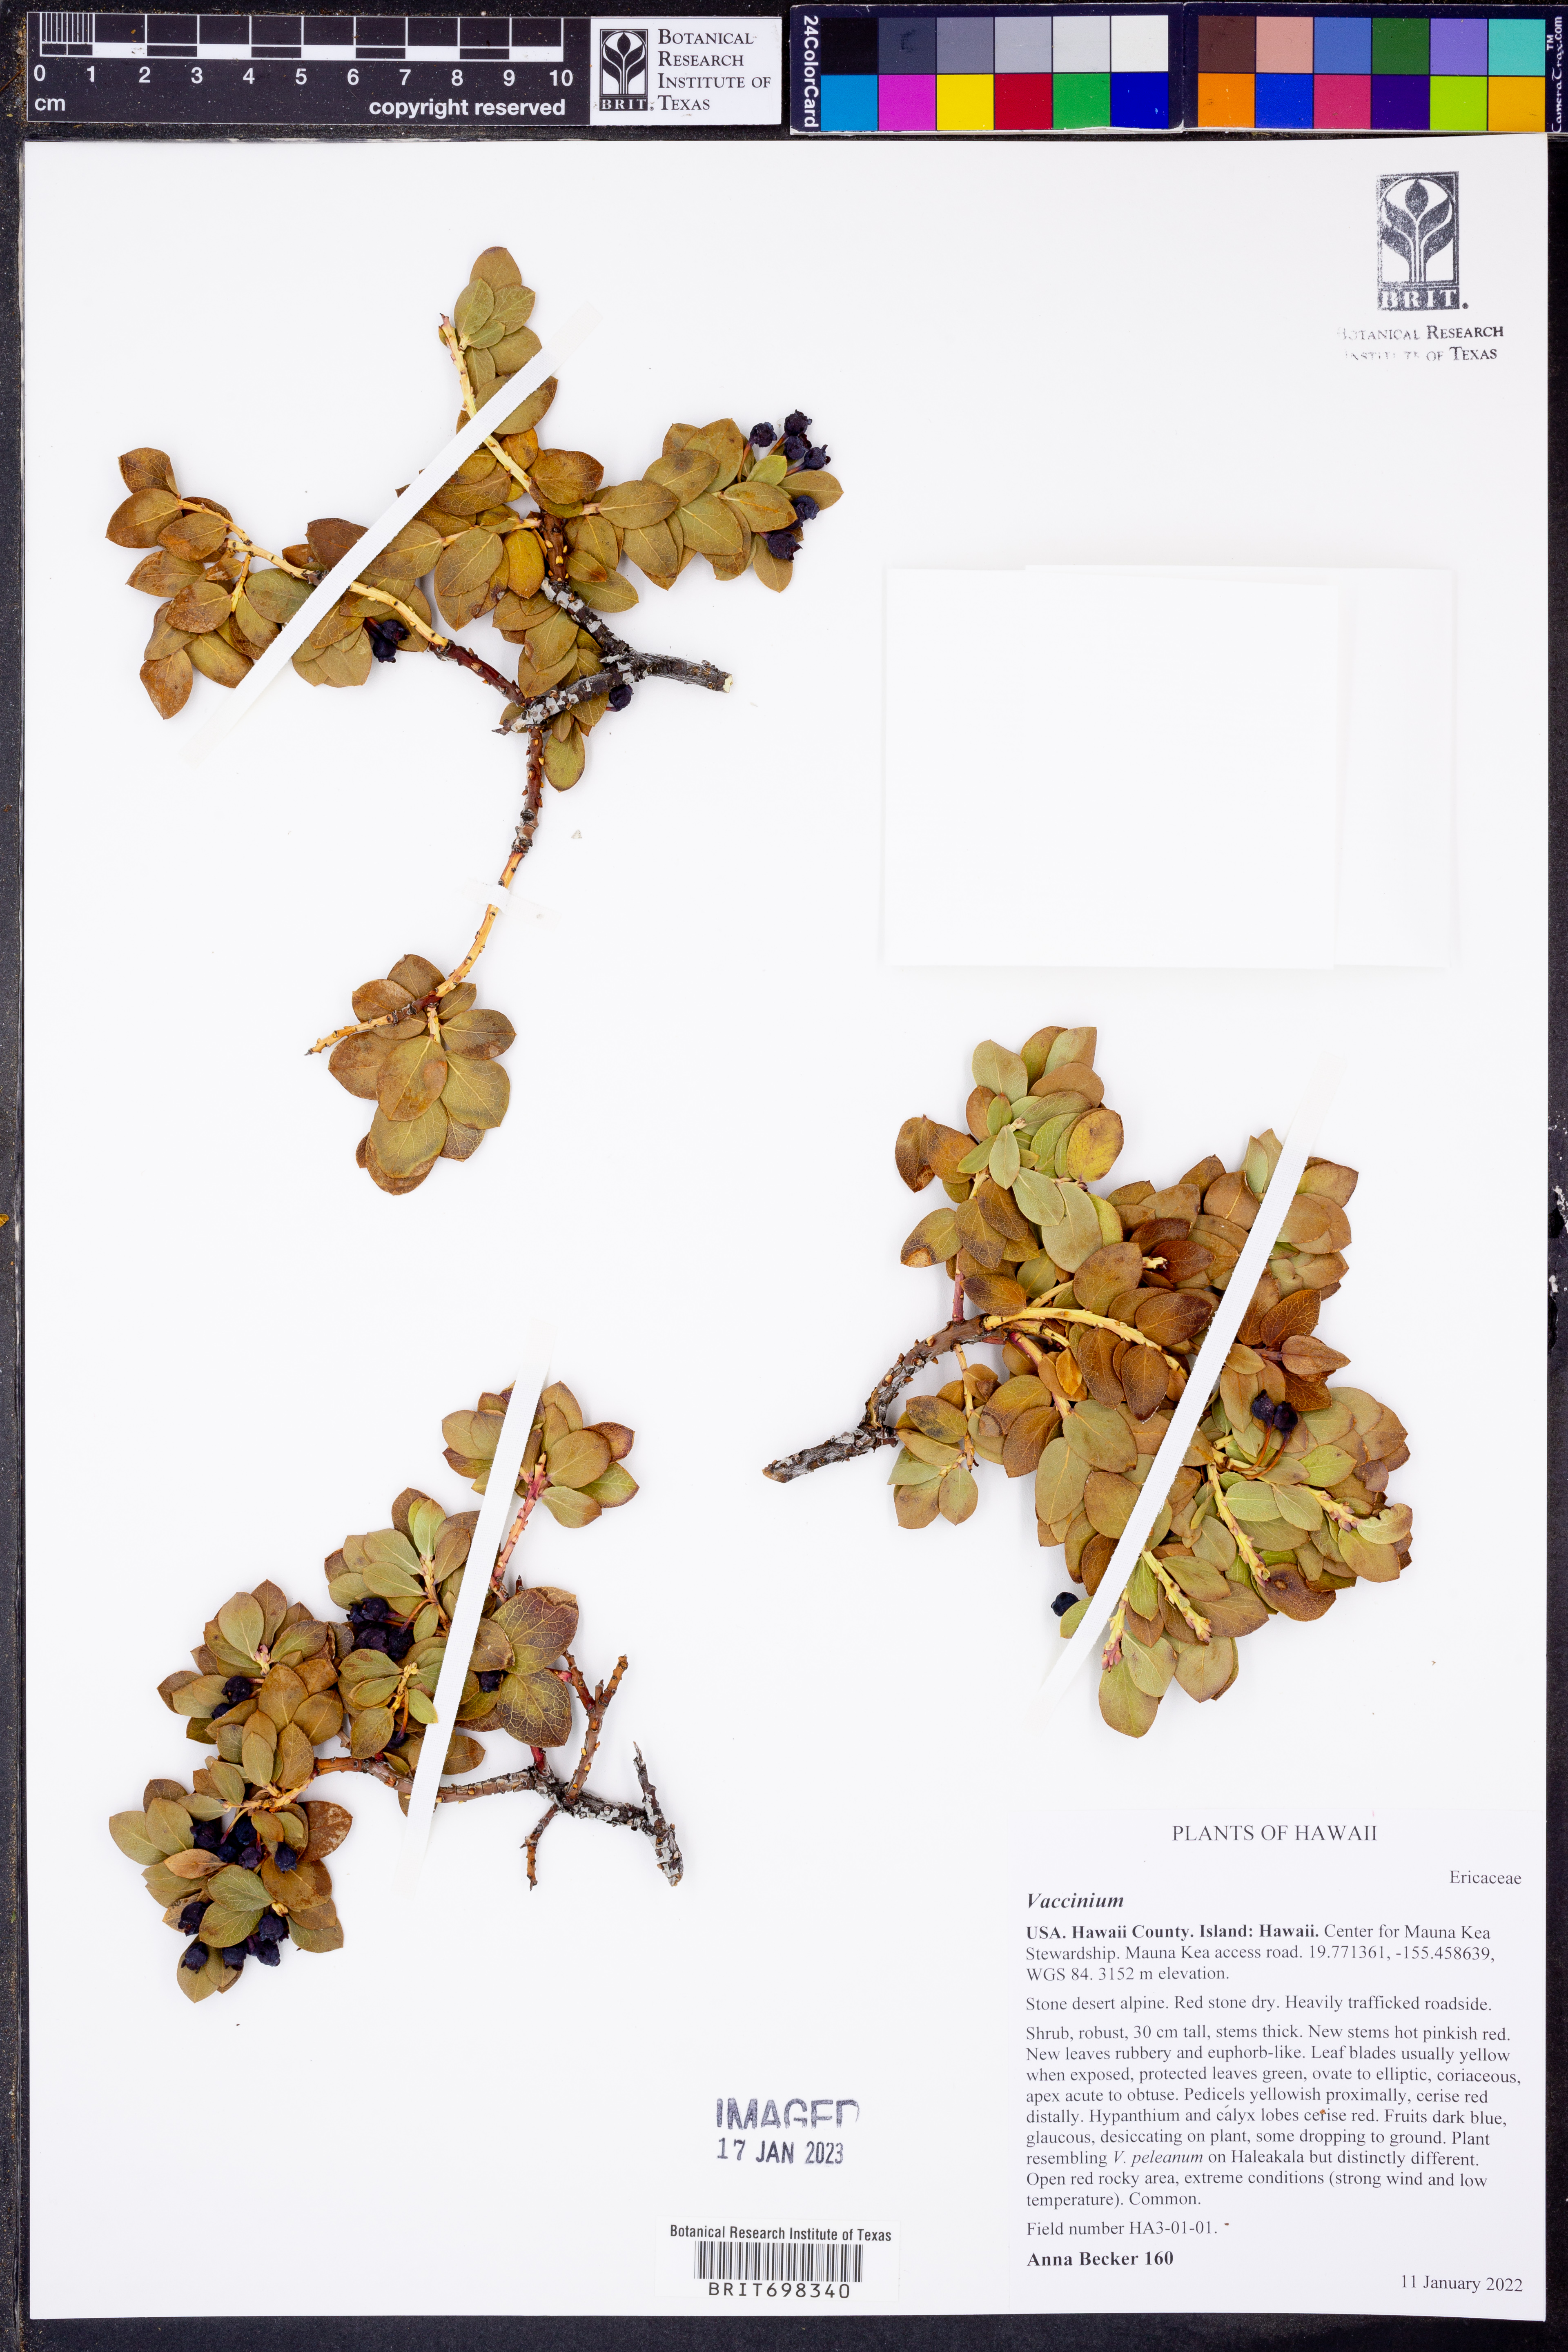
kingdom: Plantae
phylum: Tracheophyta
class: Magnoliopsida
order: Ericales
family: Ericaceae
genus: Vaccinium
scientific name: Vaccinium
